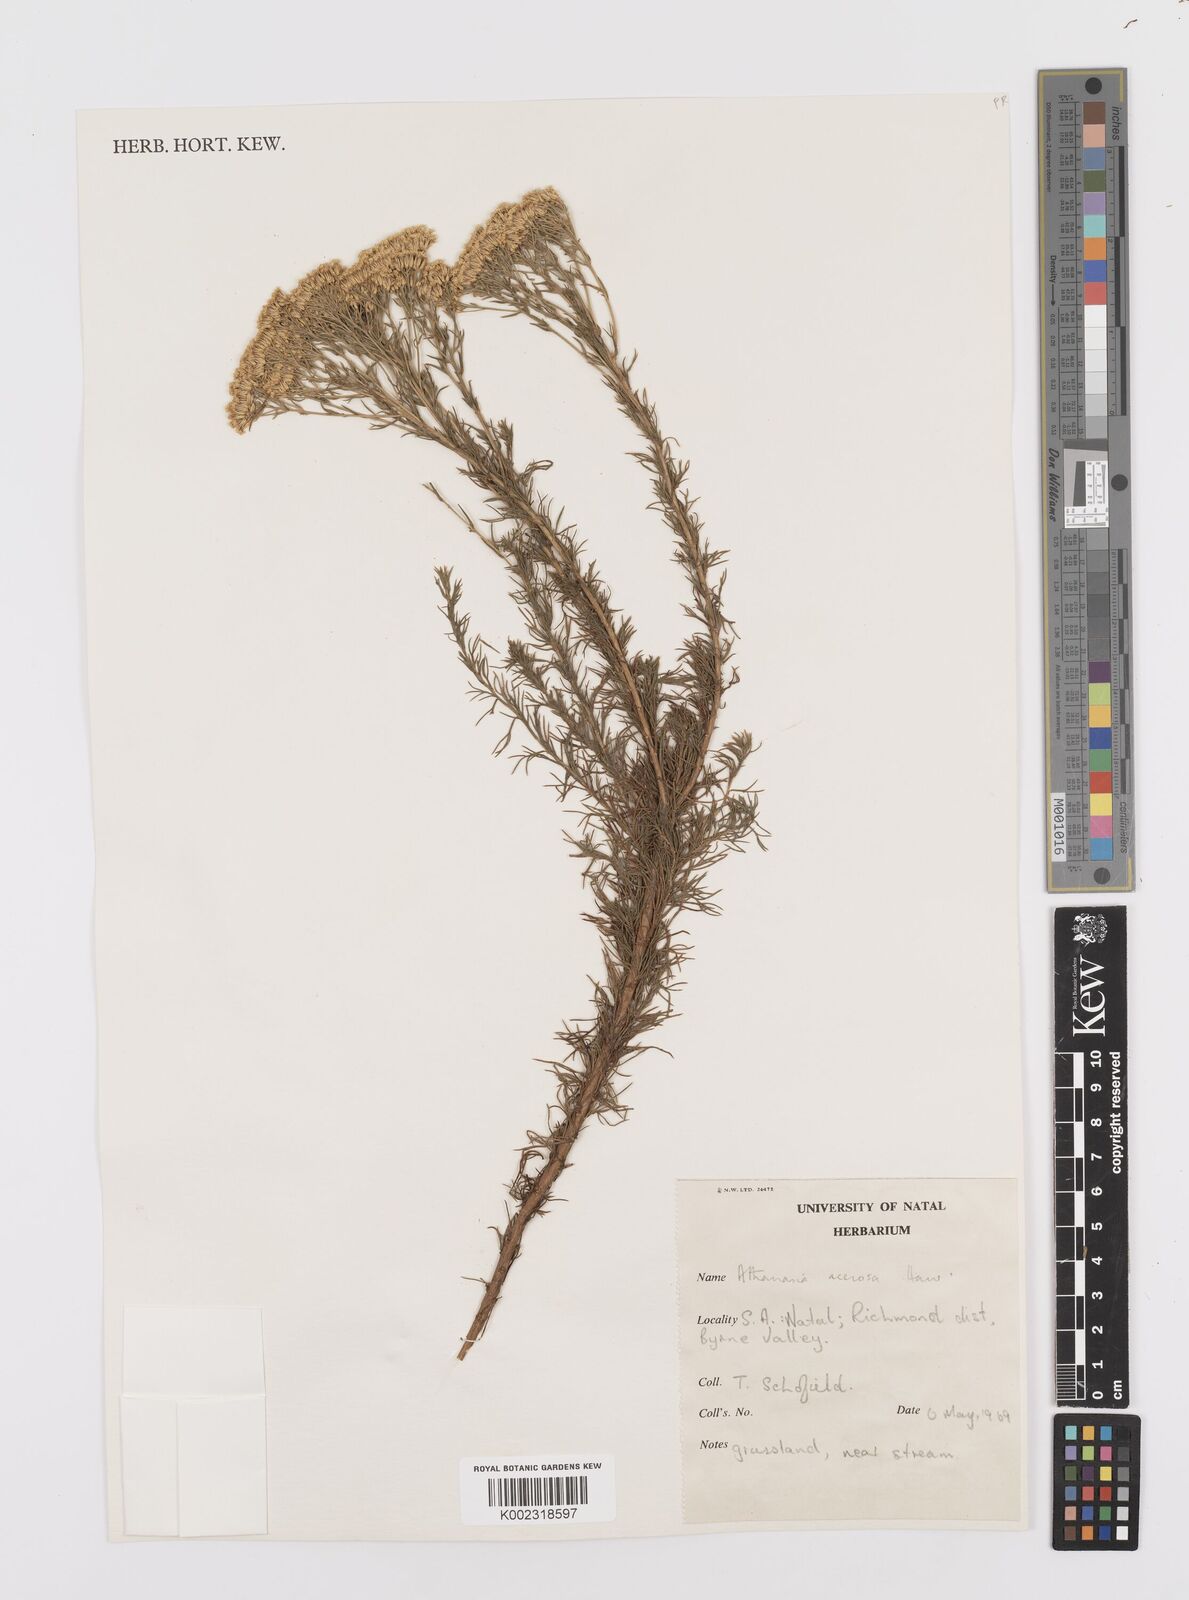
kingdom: Plantae
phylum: Tracheophyta
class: Magnoliopsida
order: Asterales
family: Asteraceae
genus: Phymaspermum
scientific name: Phymaspermum acerosum
